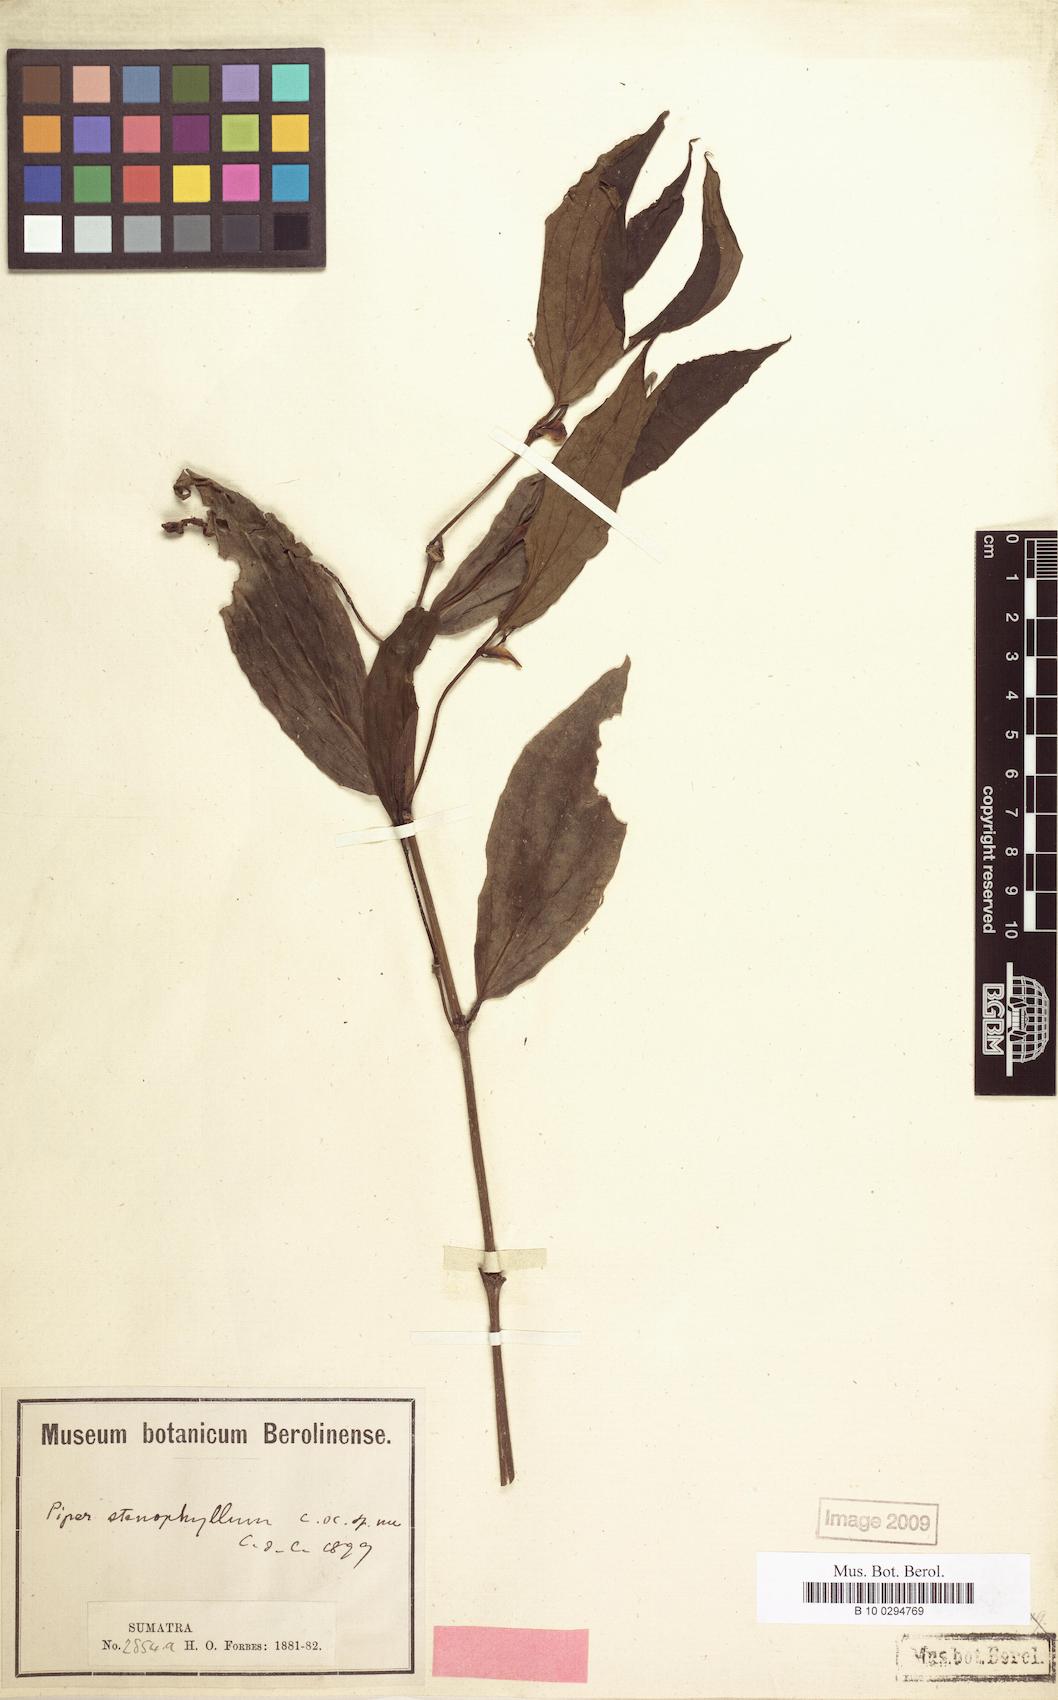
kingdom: Plantae
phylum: Tracheophyta
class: Magnoliopsida
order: Piperales
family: Piperaceae
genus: Piper
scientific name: Piper stenophyllum
